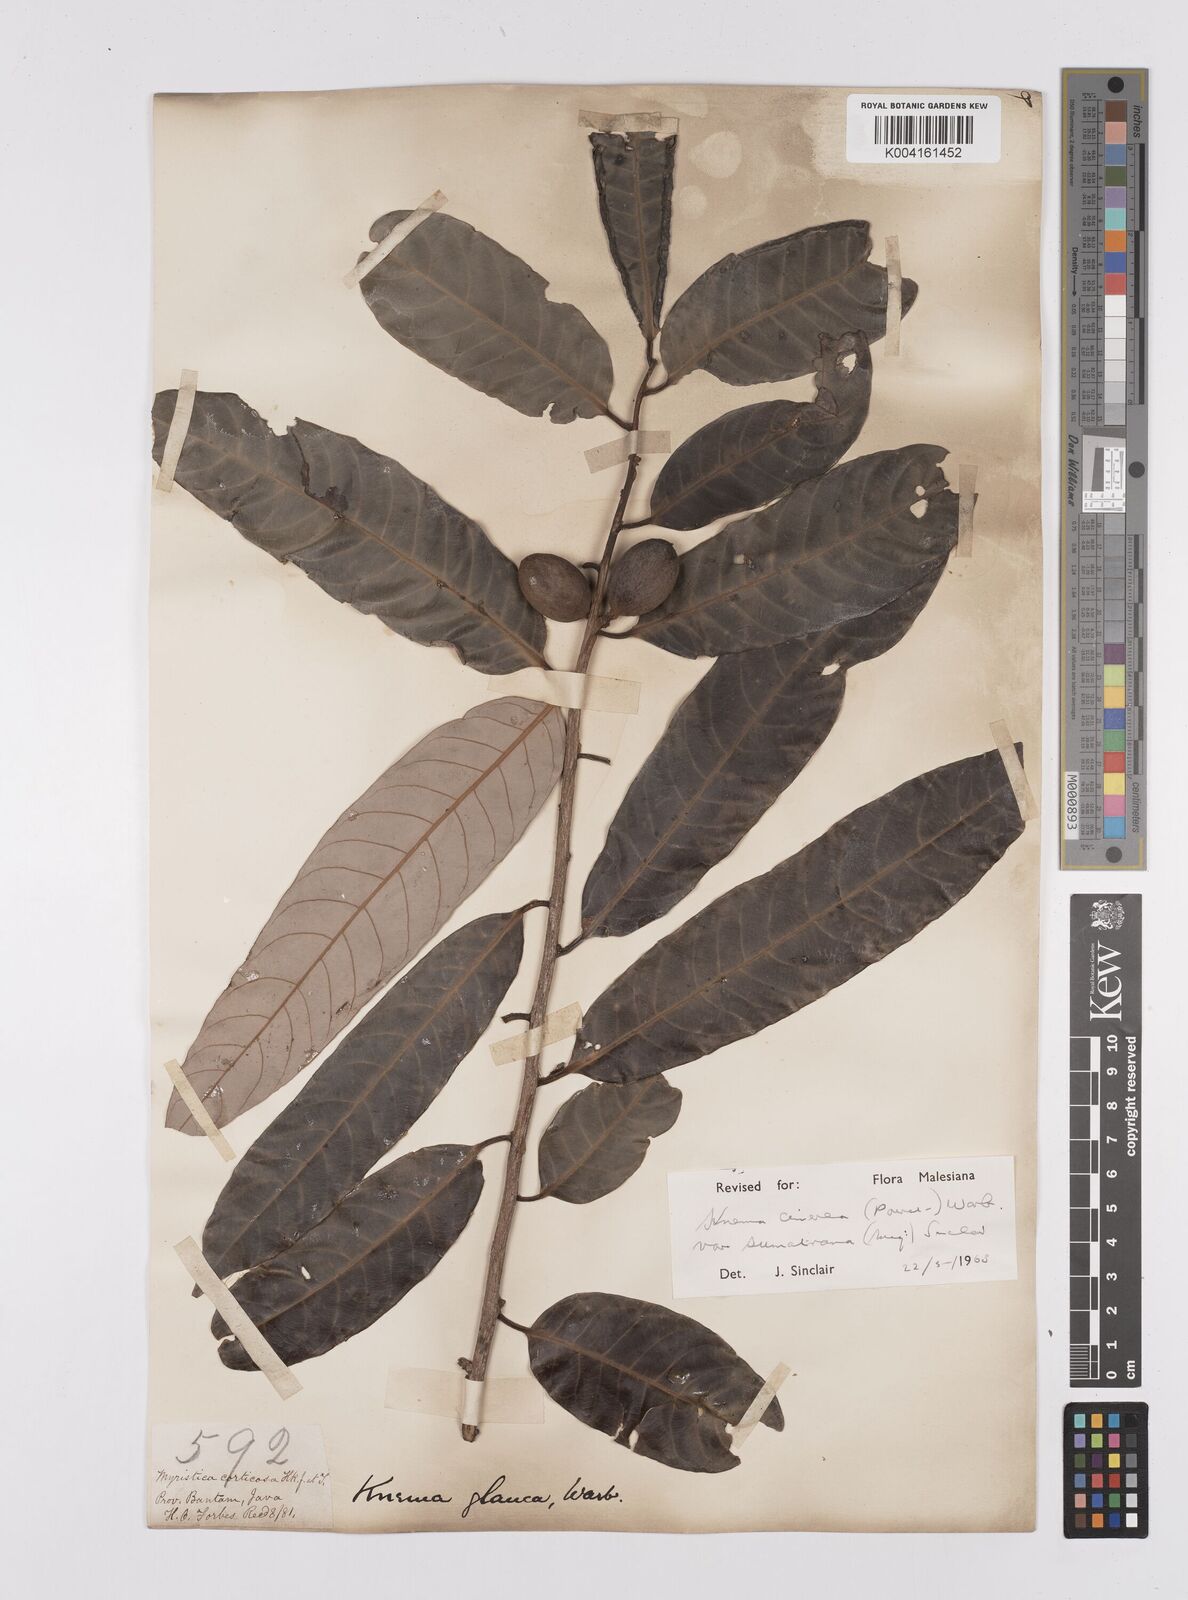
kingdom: Plantae
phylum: Tracheophyta
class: Magnoliopsida
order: Magnoliales
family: Myristicaceae
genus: Knema
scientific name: Knema
